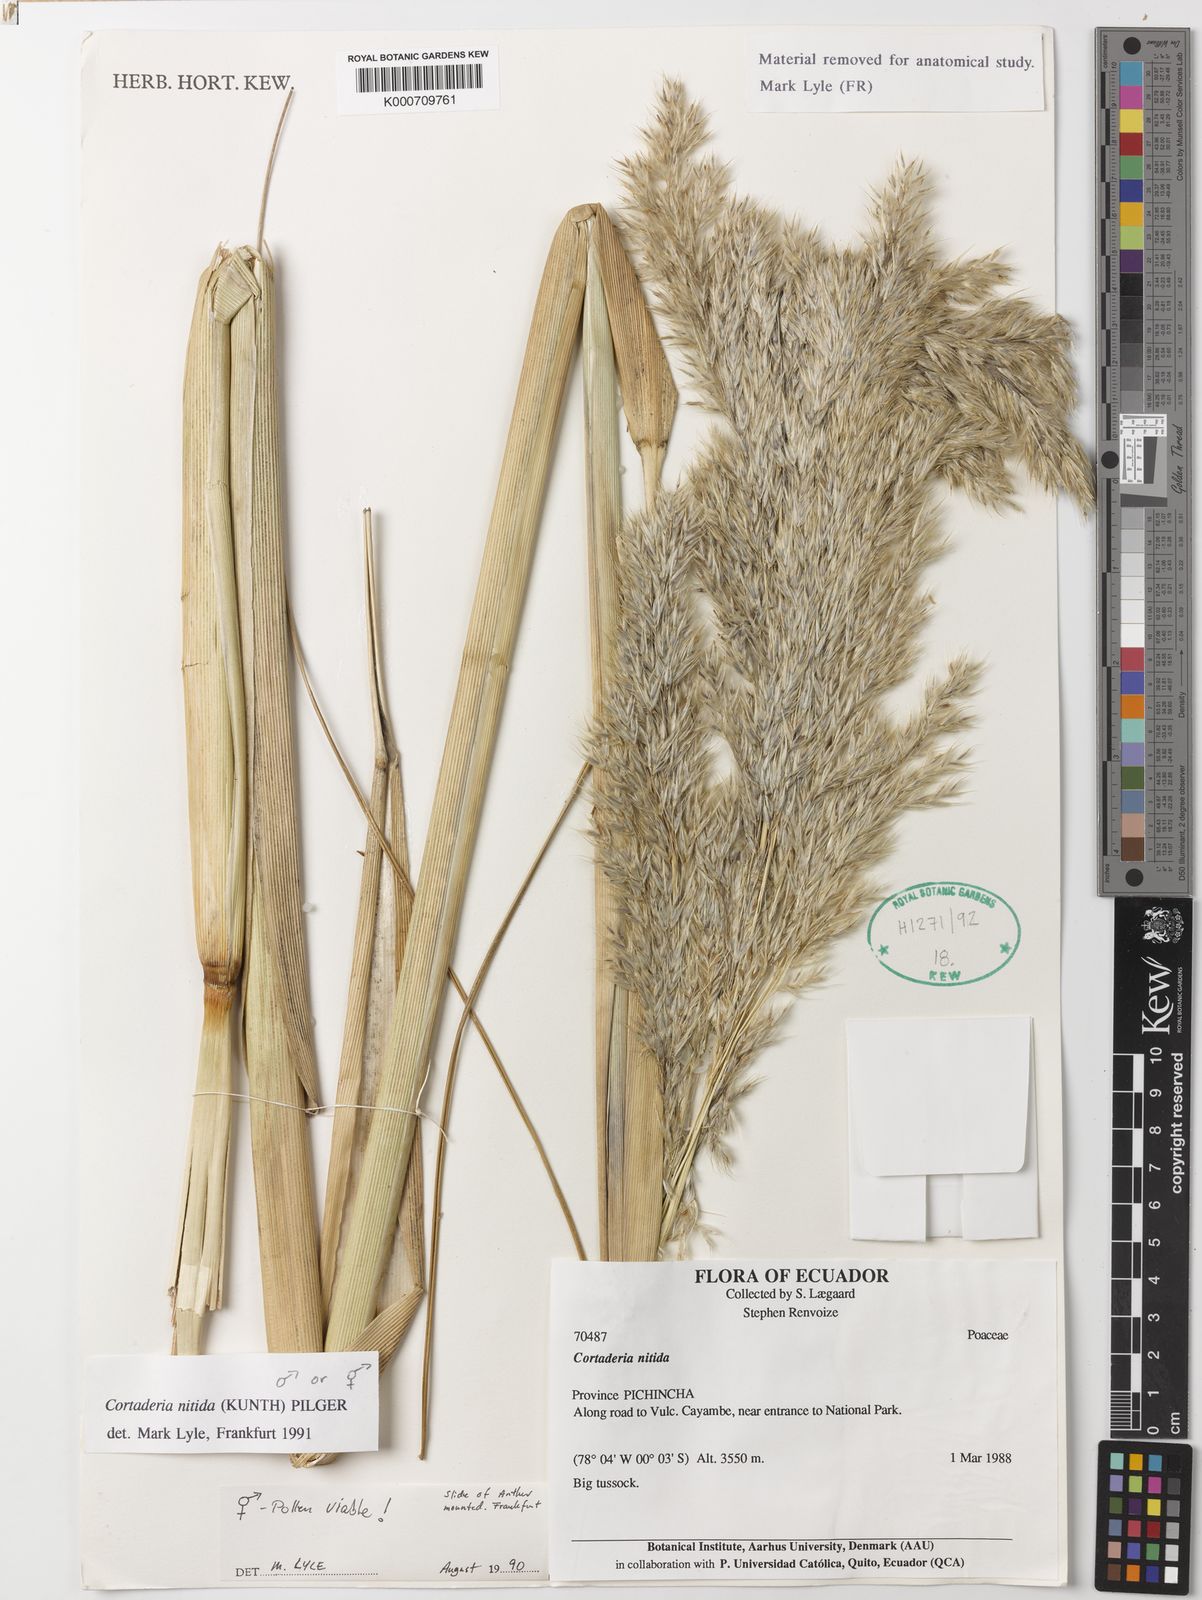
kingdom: Plantae
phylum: Tracheophyta
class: Liliopsida
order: Poales
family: Poaceae
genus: Cortaderia
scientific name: Cortaderia nitida
